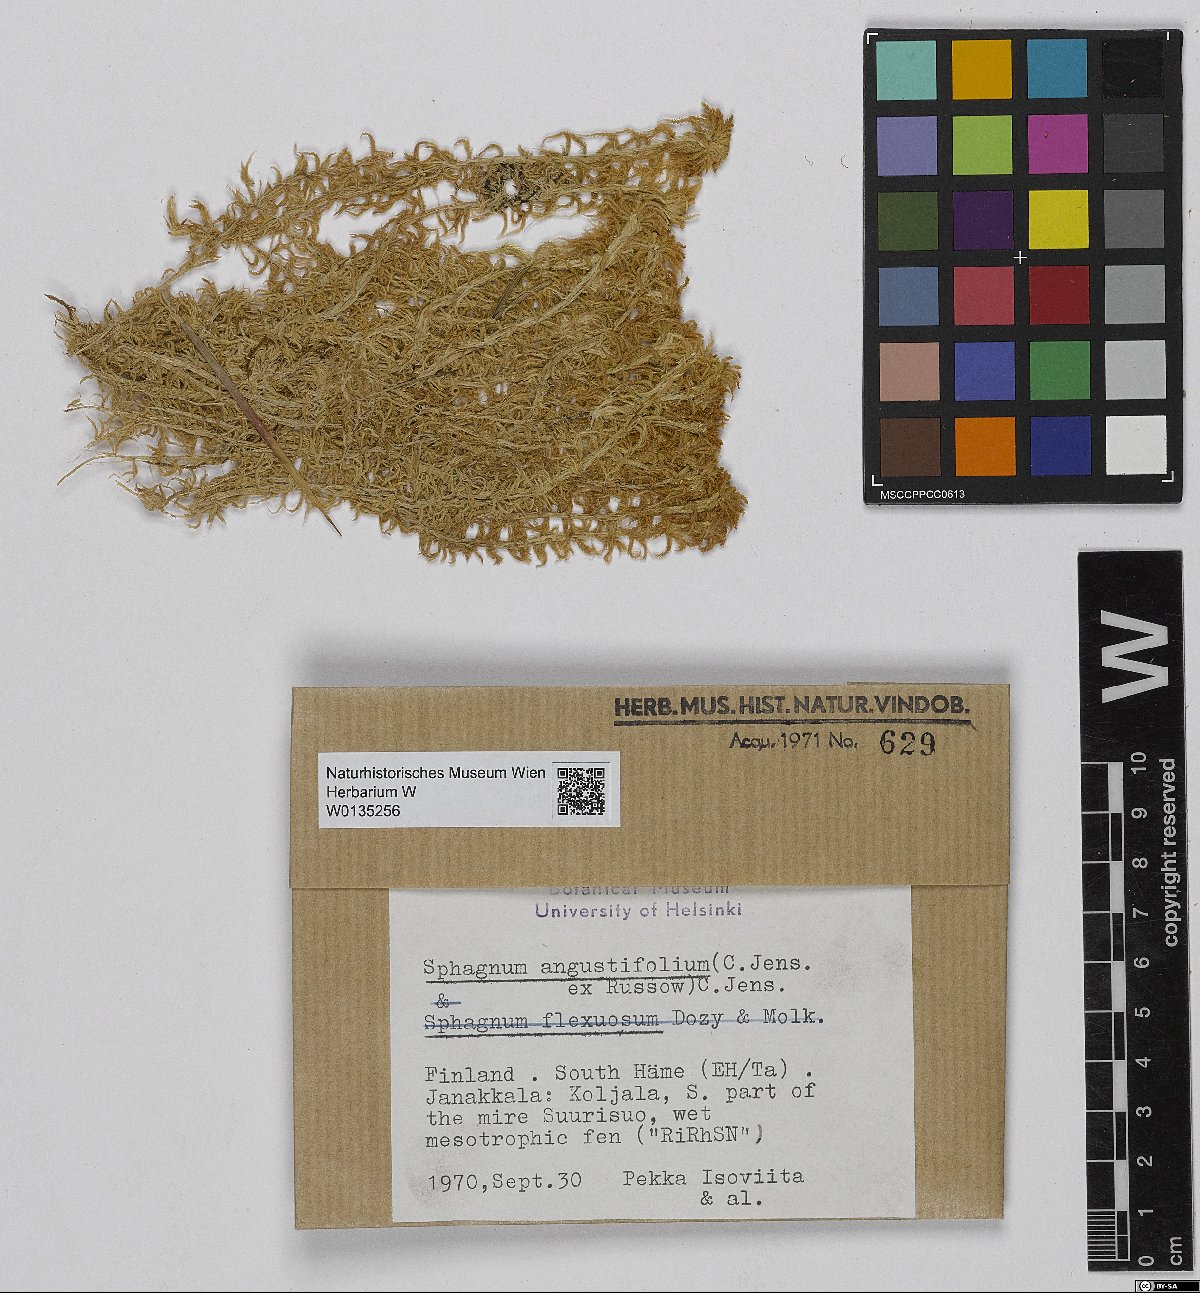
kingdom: Plantae
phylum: Bryophyta
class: Sphagnopsida
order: Sphagnales
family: Sphagnaceae
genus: Sphagnum
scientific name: Sphagnum angustifolium
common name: Narrow-leaved peat moss
